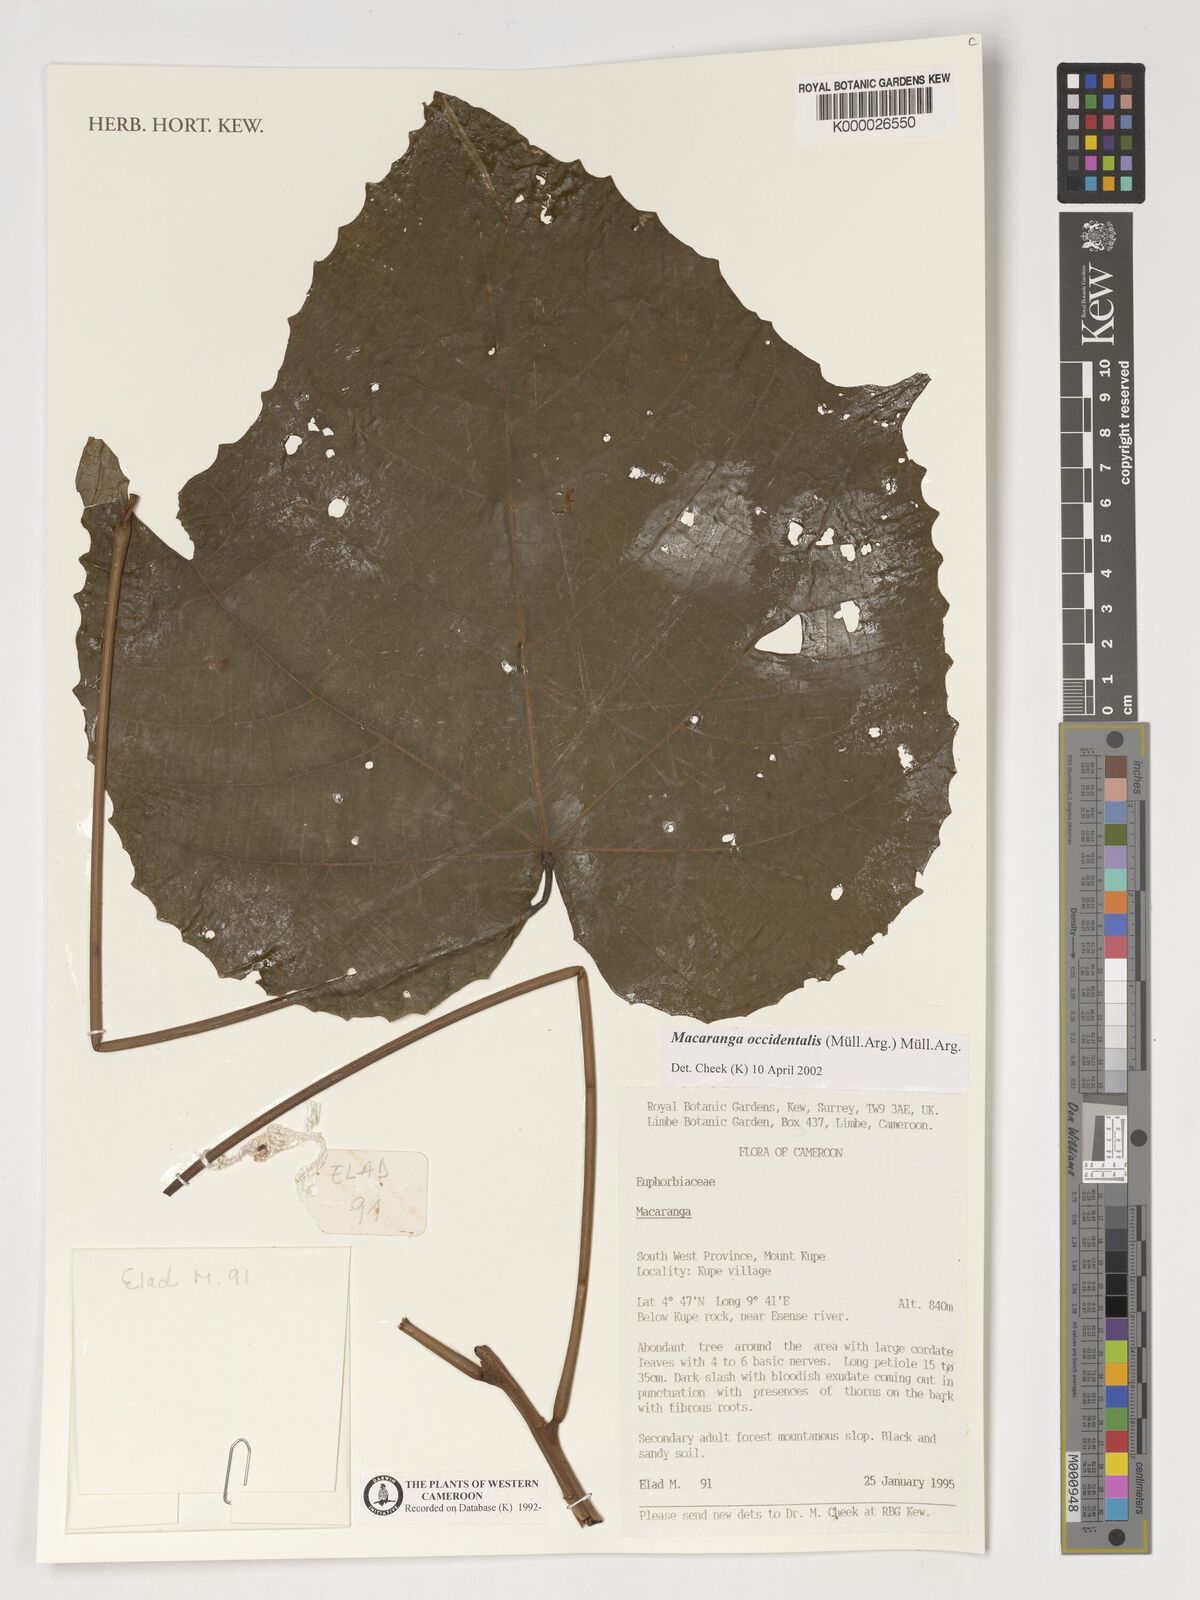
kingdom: Plantae
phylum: Tracheophyta
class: Magnoliopsida
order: Malpighiales
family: Euphorbiaceae
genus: Macaranga
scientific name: Macaranga occidentalis
